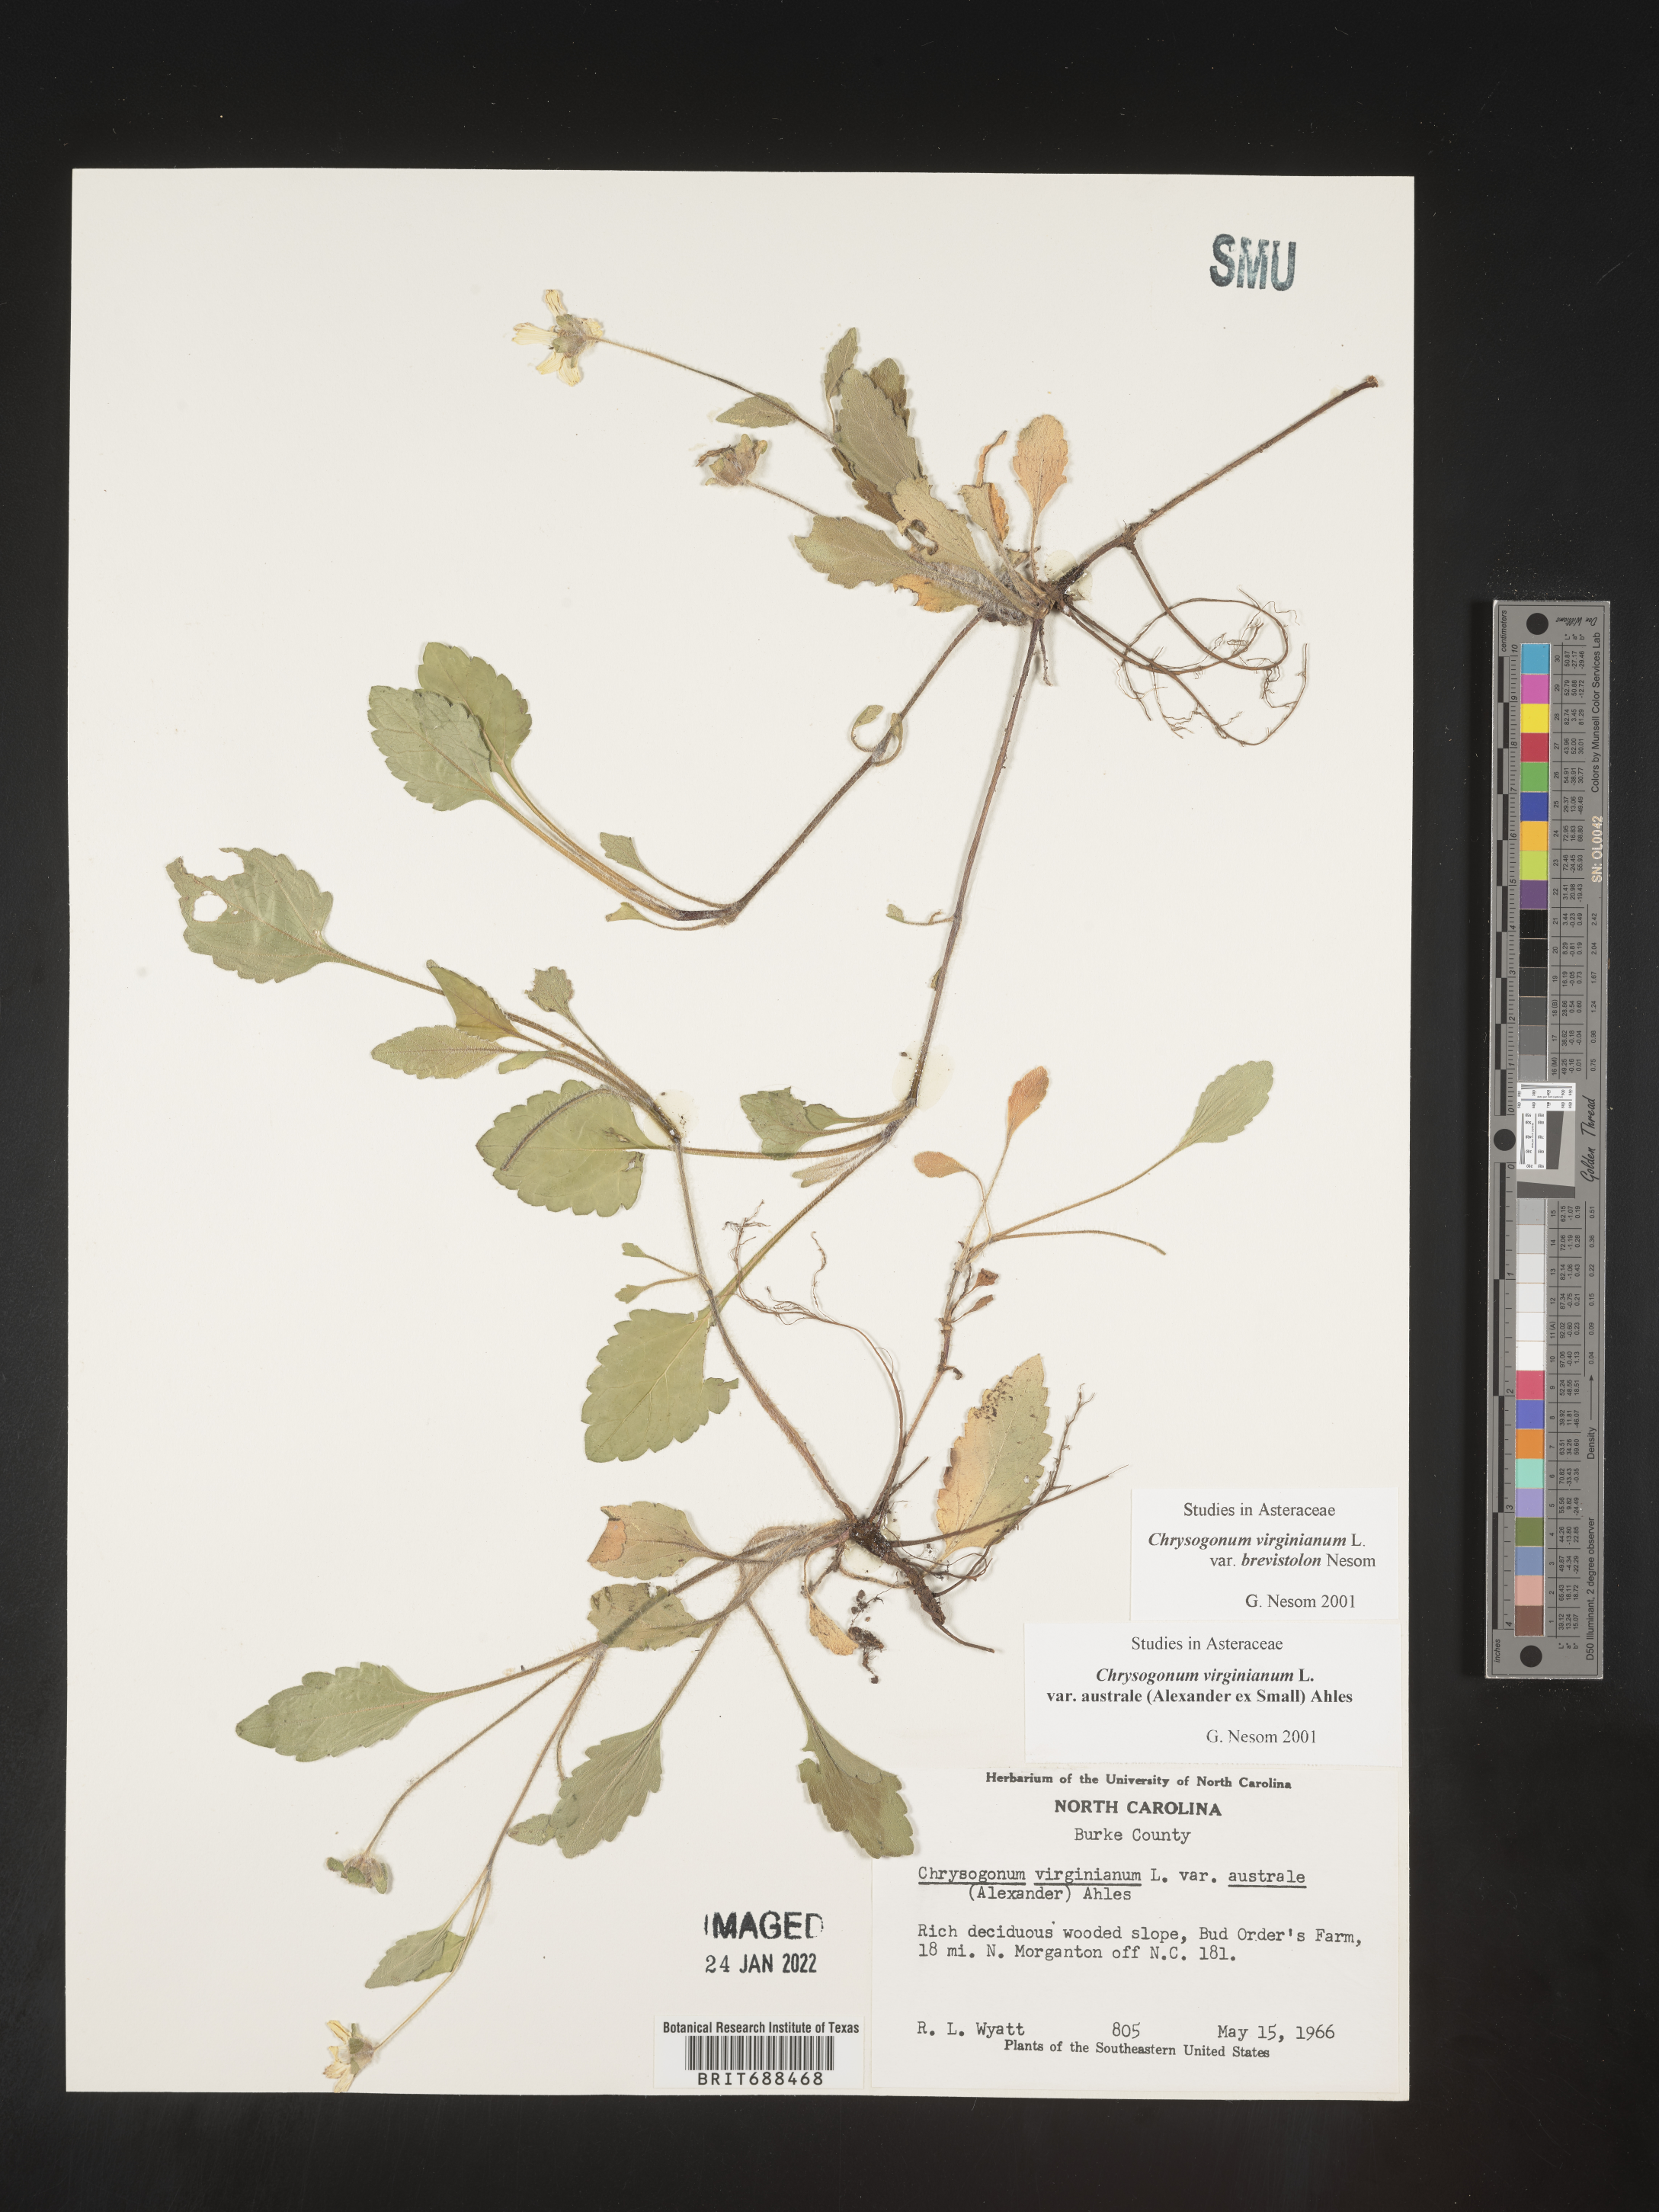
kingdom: Plantae
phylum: Tracheophyta
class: Magnoliopsida
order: Asterales
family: Asteraceae
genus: Chrysogonum
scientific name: Chrysogonum virginianum
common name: Golden-knee
